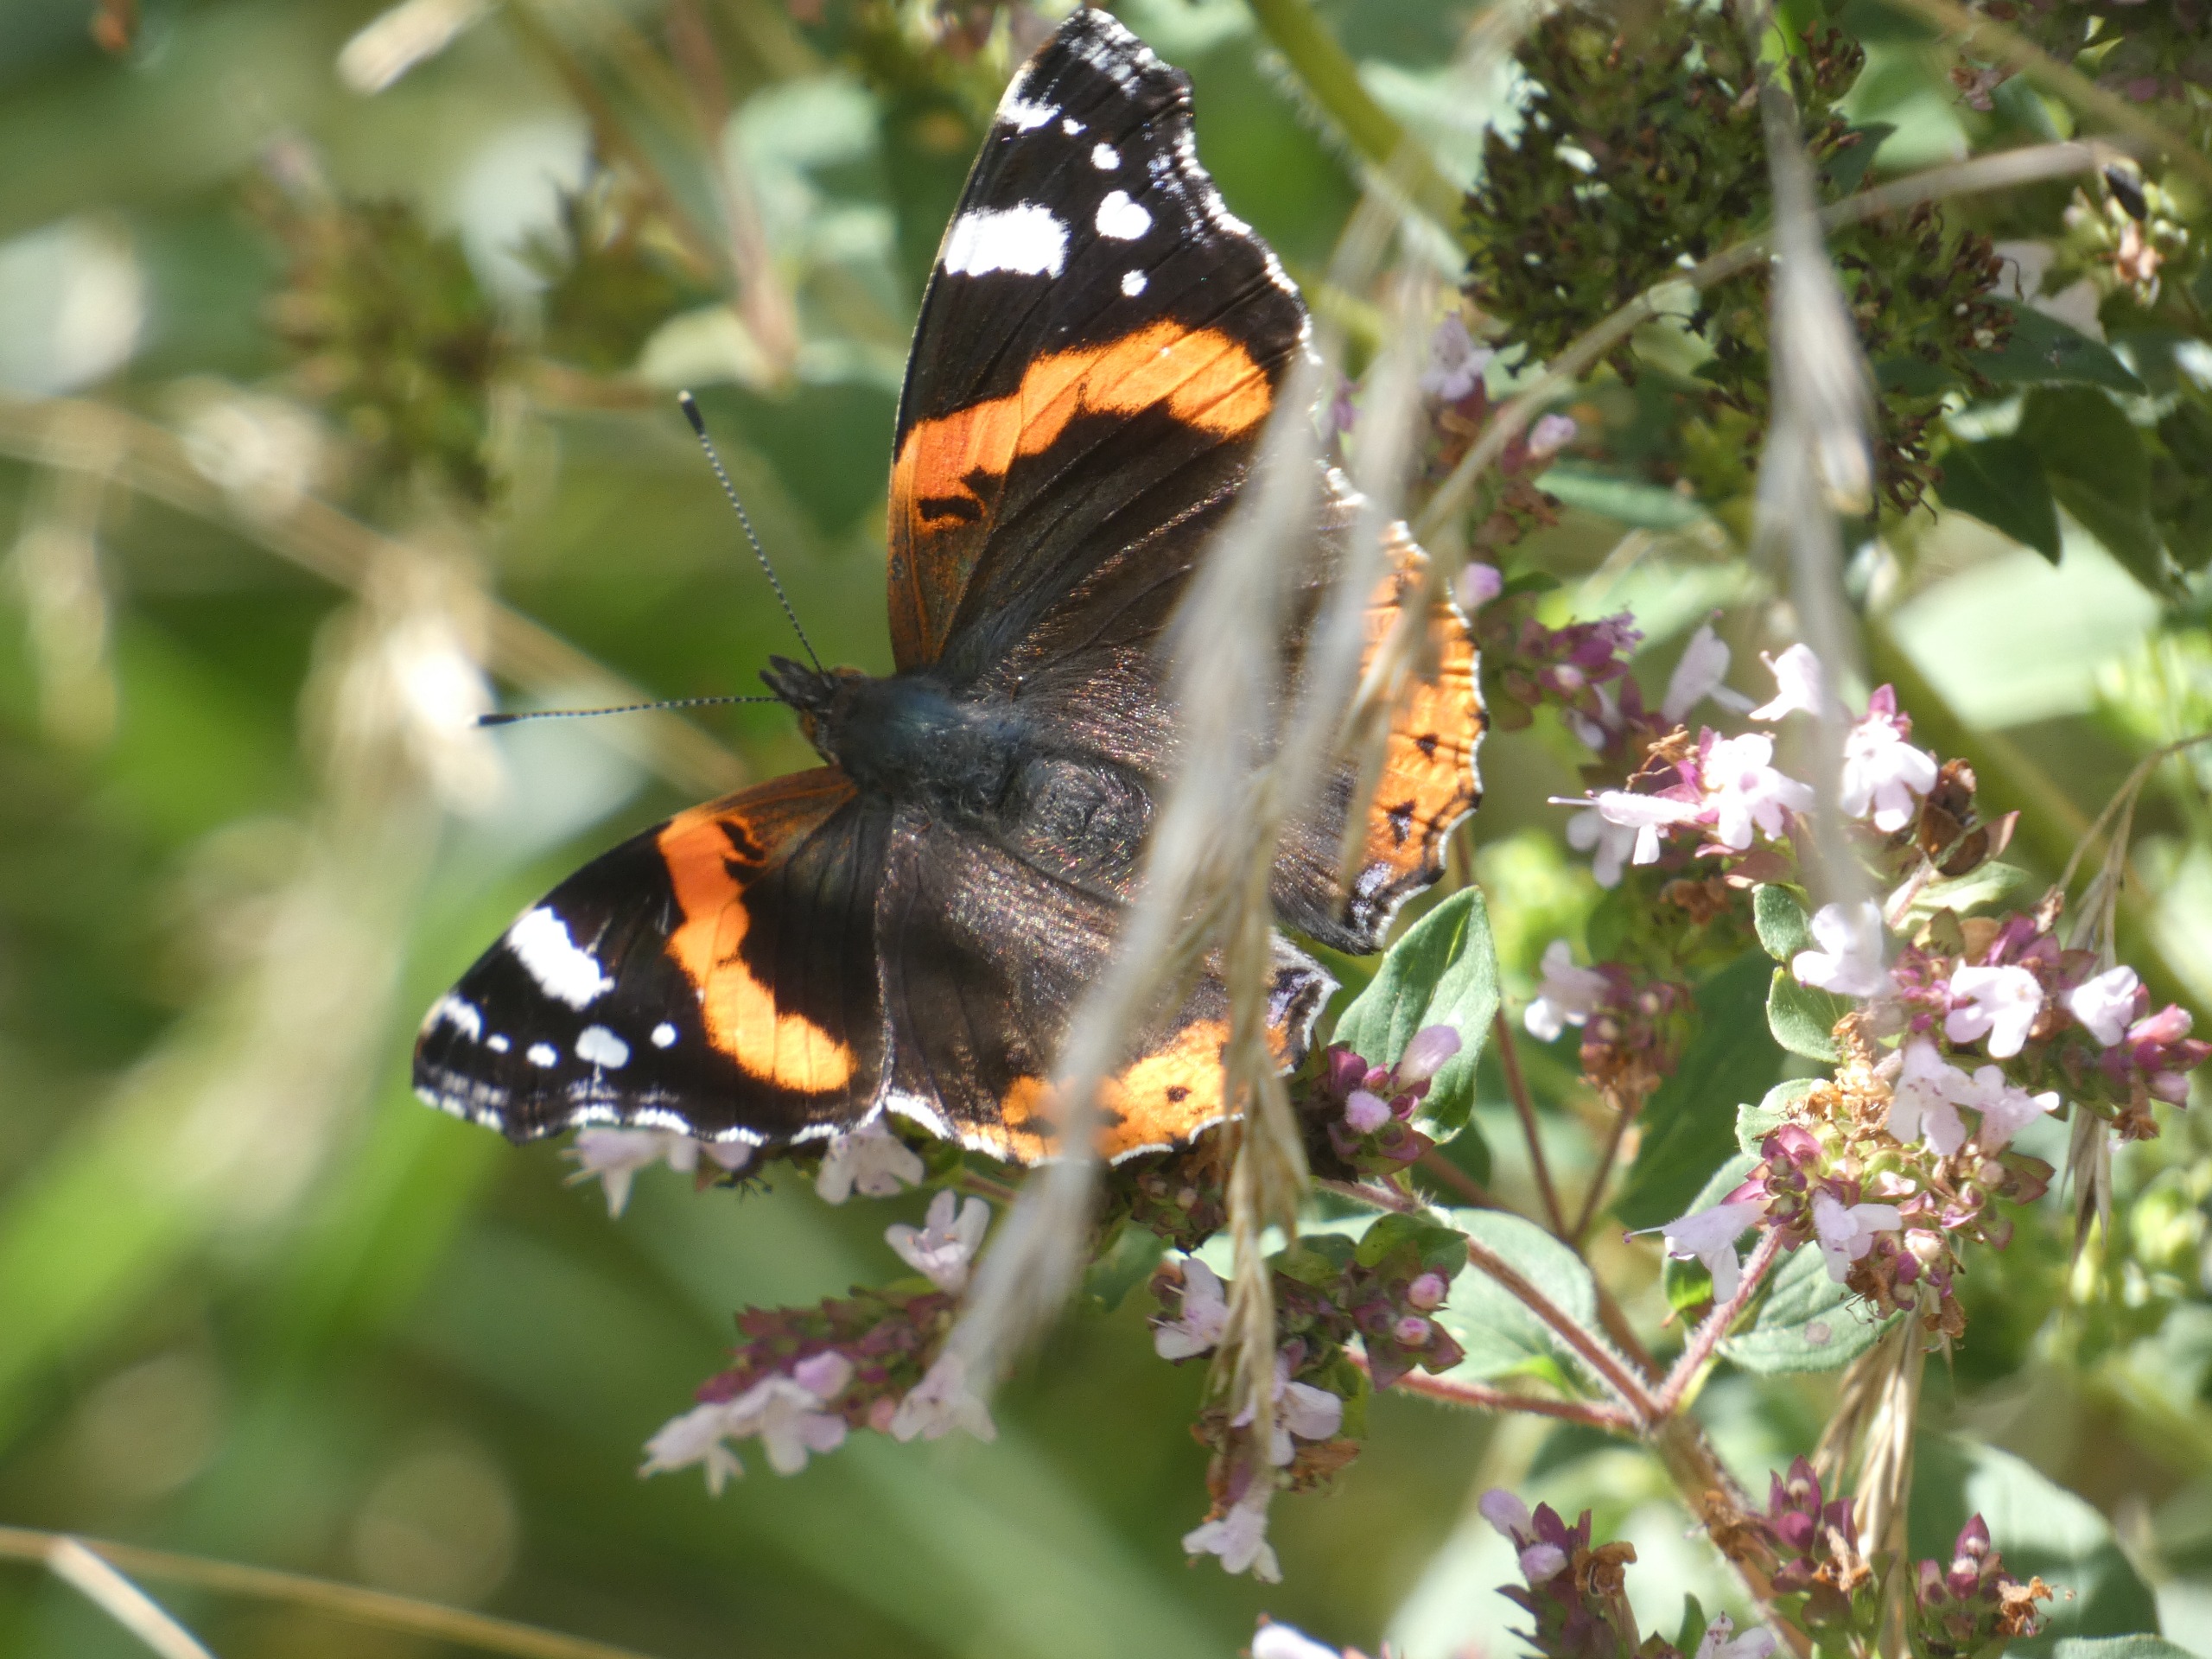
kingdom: Animalia
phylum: Arthropoda
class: Insecta
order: Lepidoptera
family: Nymphalidae
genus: Vanessa
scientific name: Vanessa atalanta
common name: Admiral
